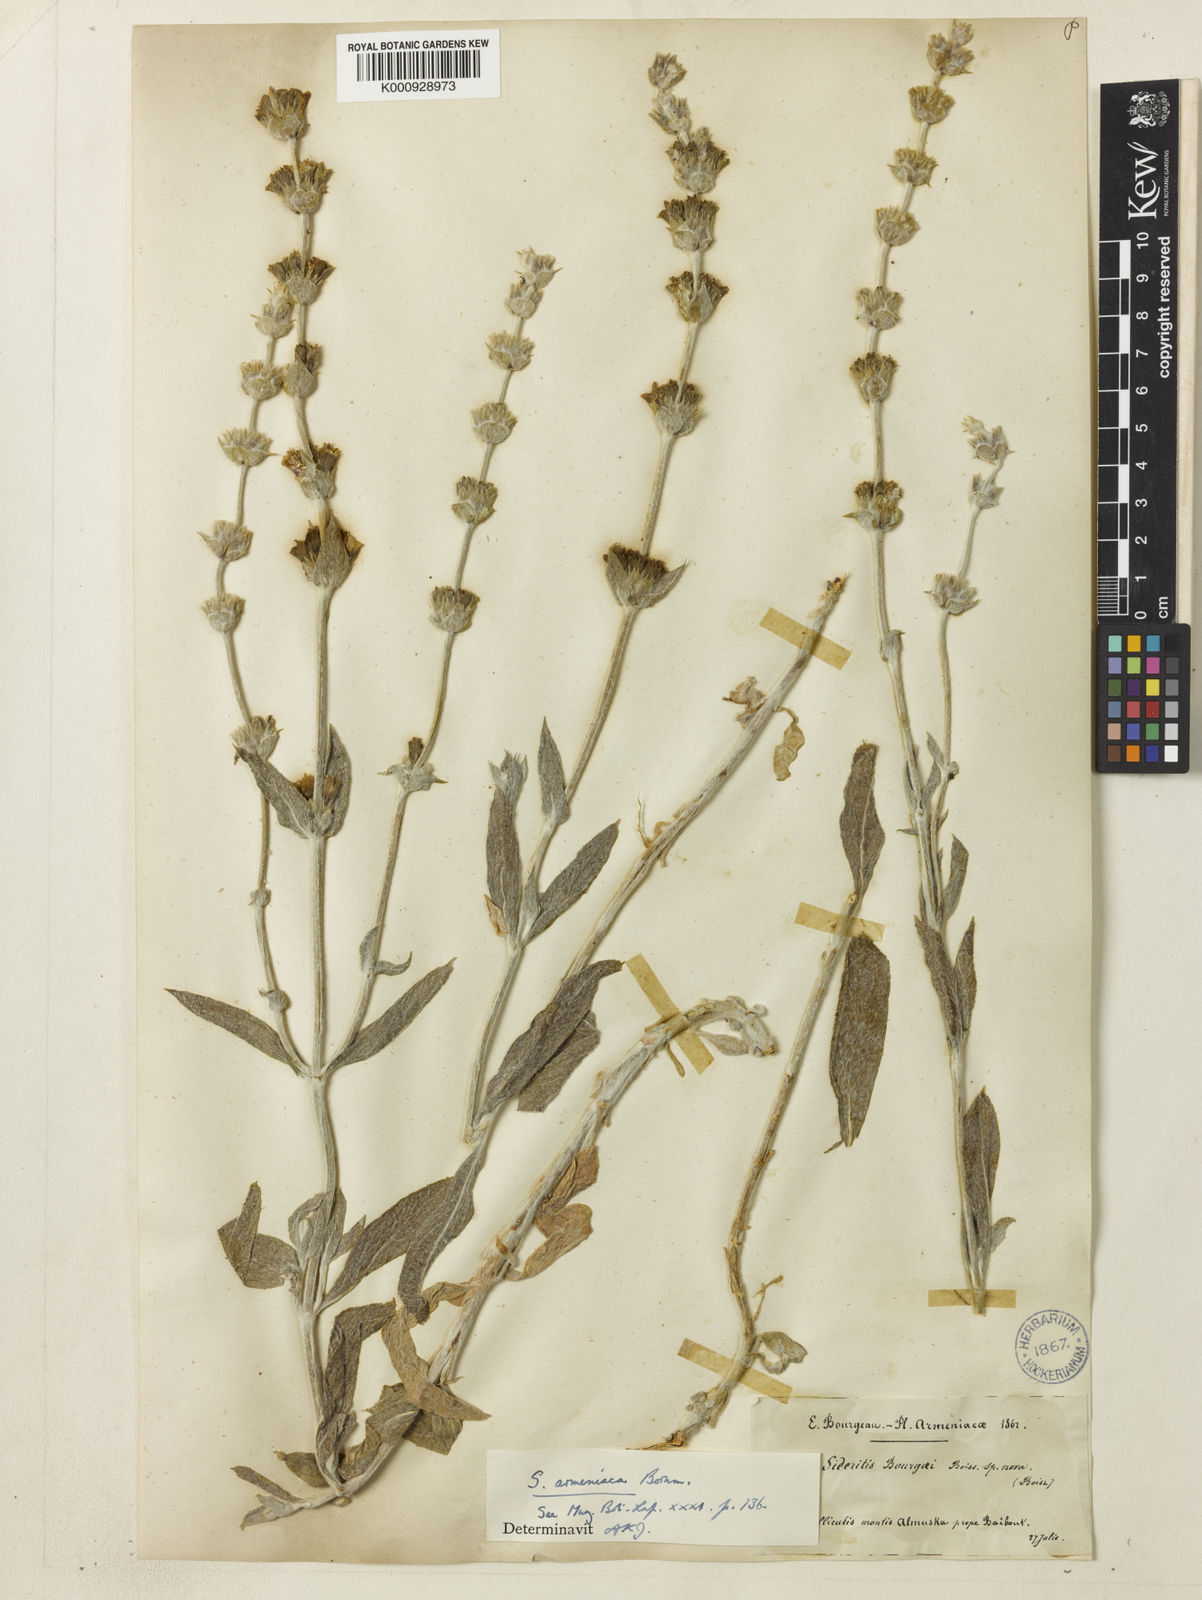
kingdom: Plantae
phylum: Tracheophyta
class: Magnoliopsida
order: Lamiales
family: Lamiaceae
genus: Sideritis
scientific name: Sideritis pisidica
